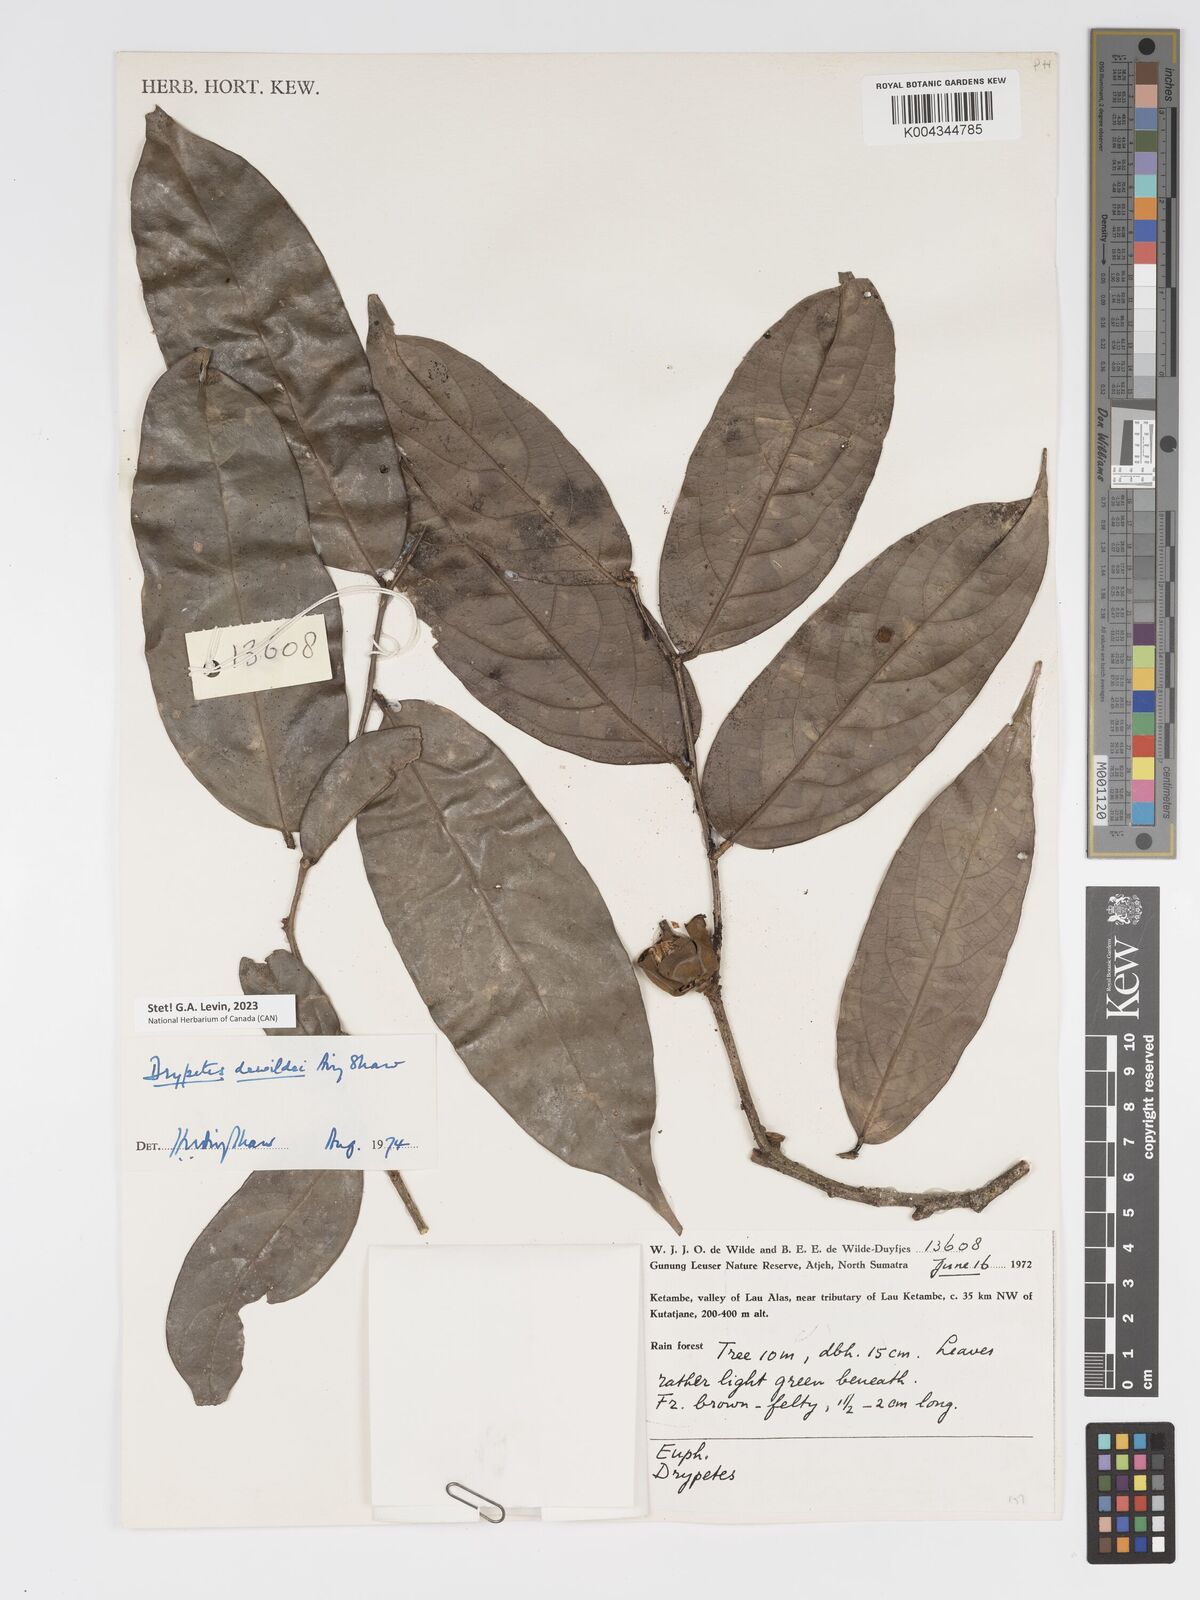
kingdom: Plantae
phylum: Tracheophyta
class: Magnoliopsida
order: Malpighiales
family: Putranjivaceae
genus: Drypetes
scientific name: Drypetes dewildei
